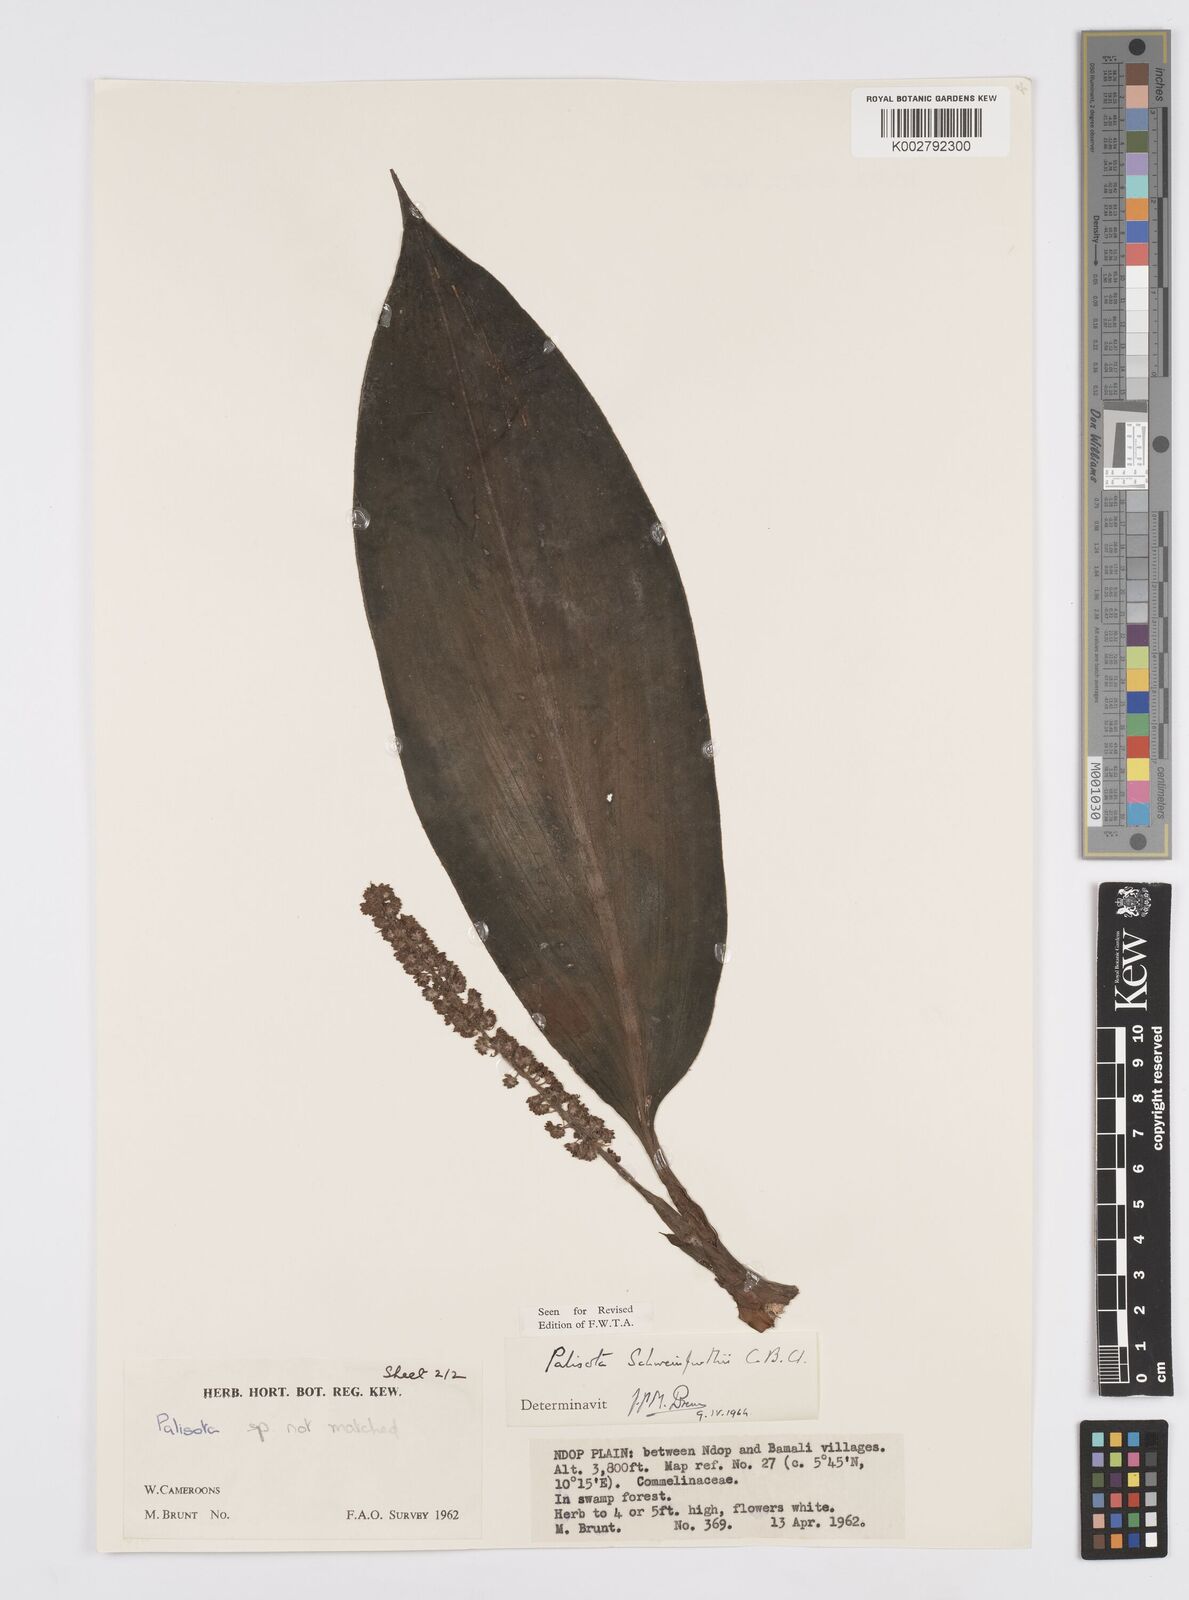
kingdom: Plantae
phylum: Tracheophyta
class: Liliopsida
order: Commelinales
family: Commelinaceae
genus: Palisota
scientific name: Palisota schweinfurthii
